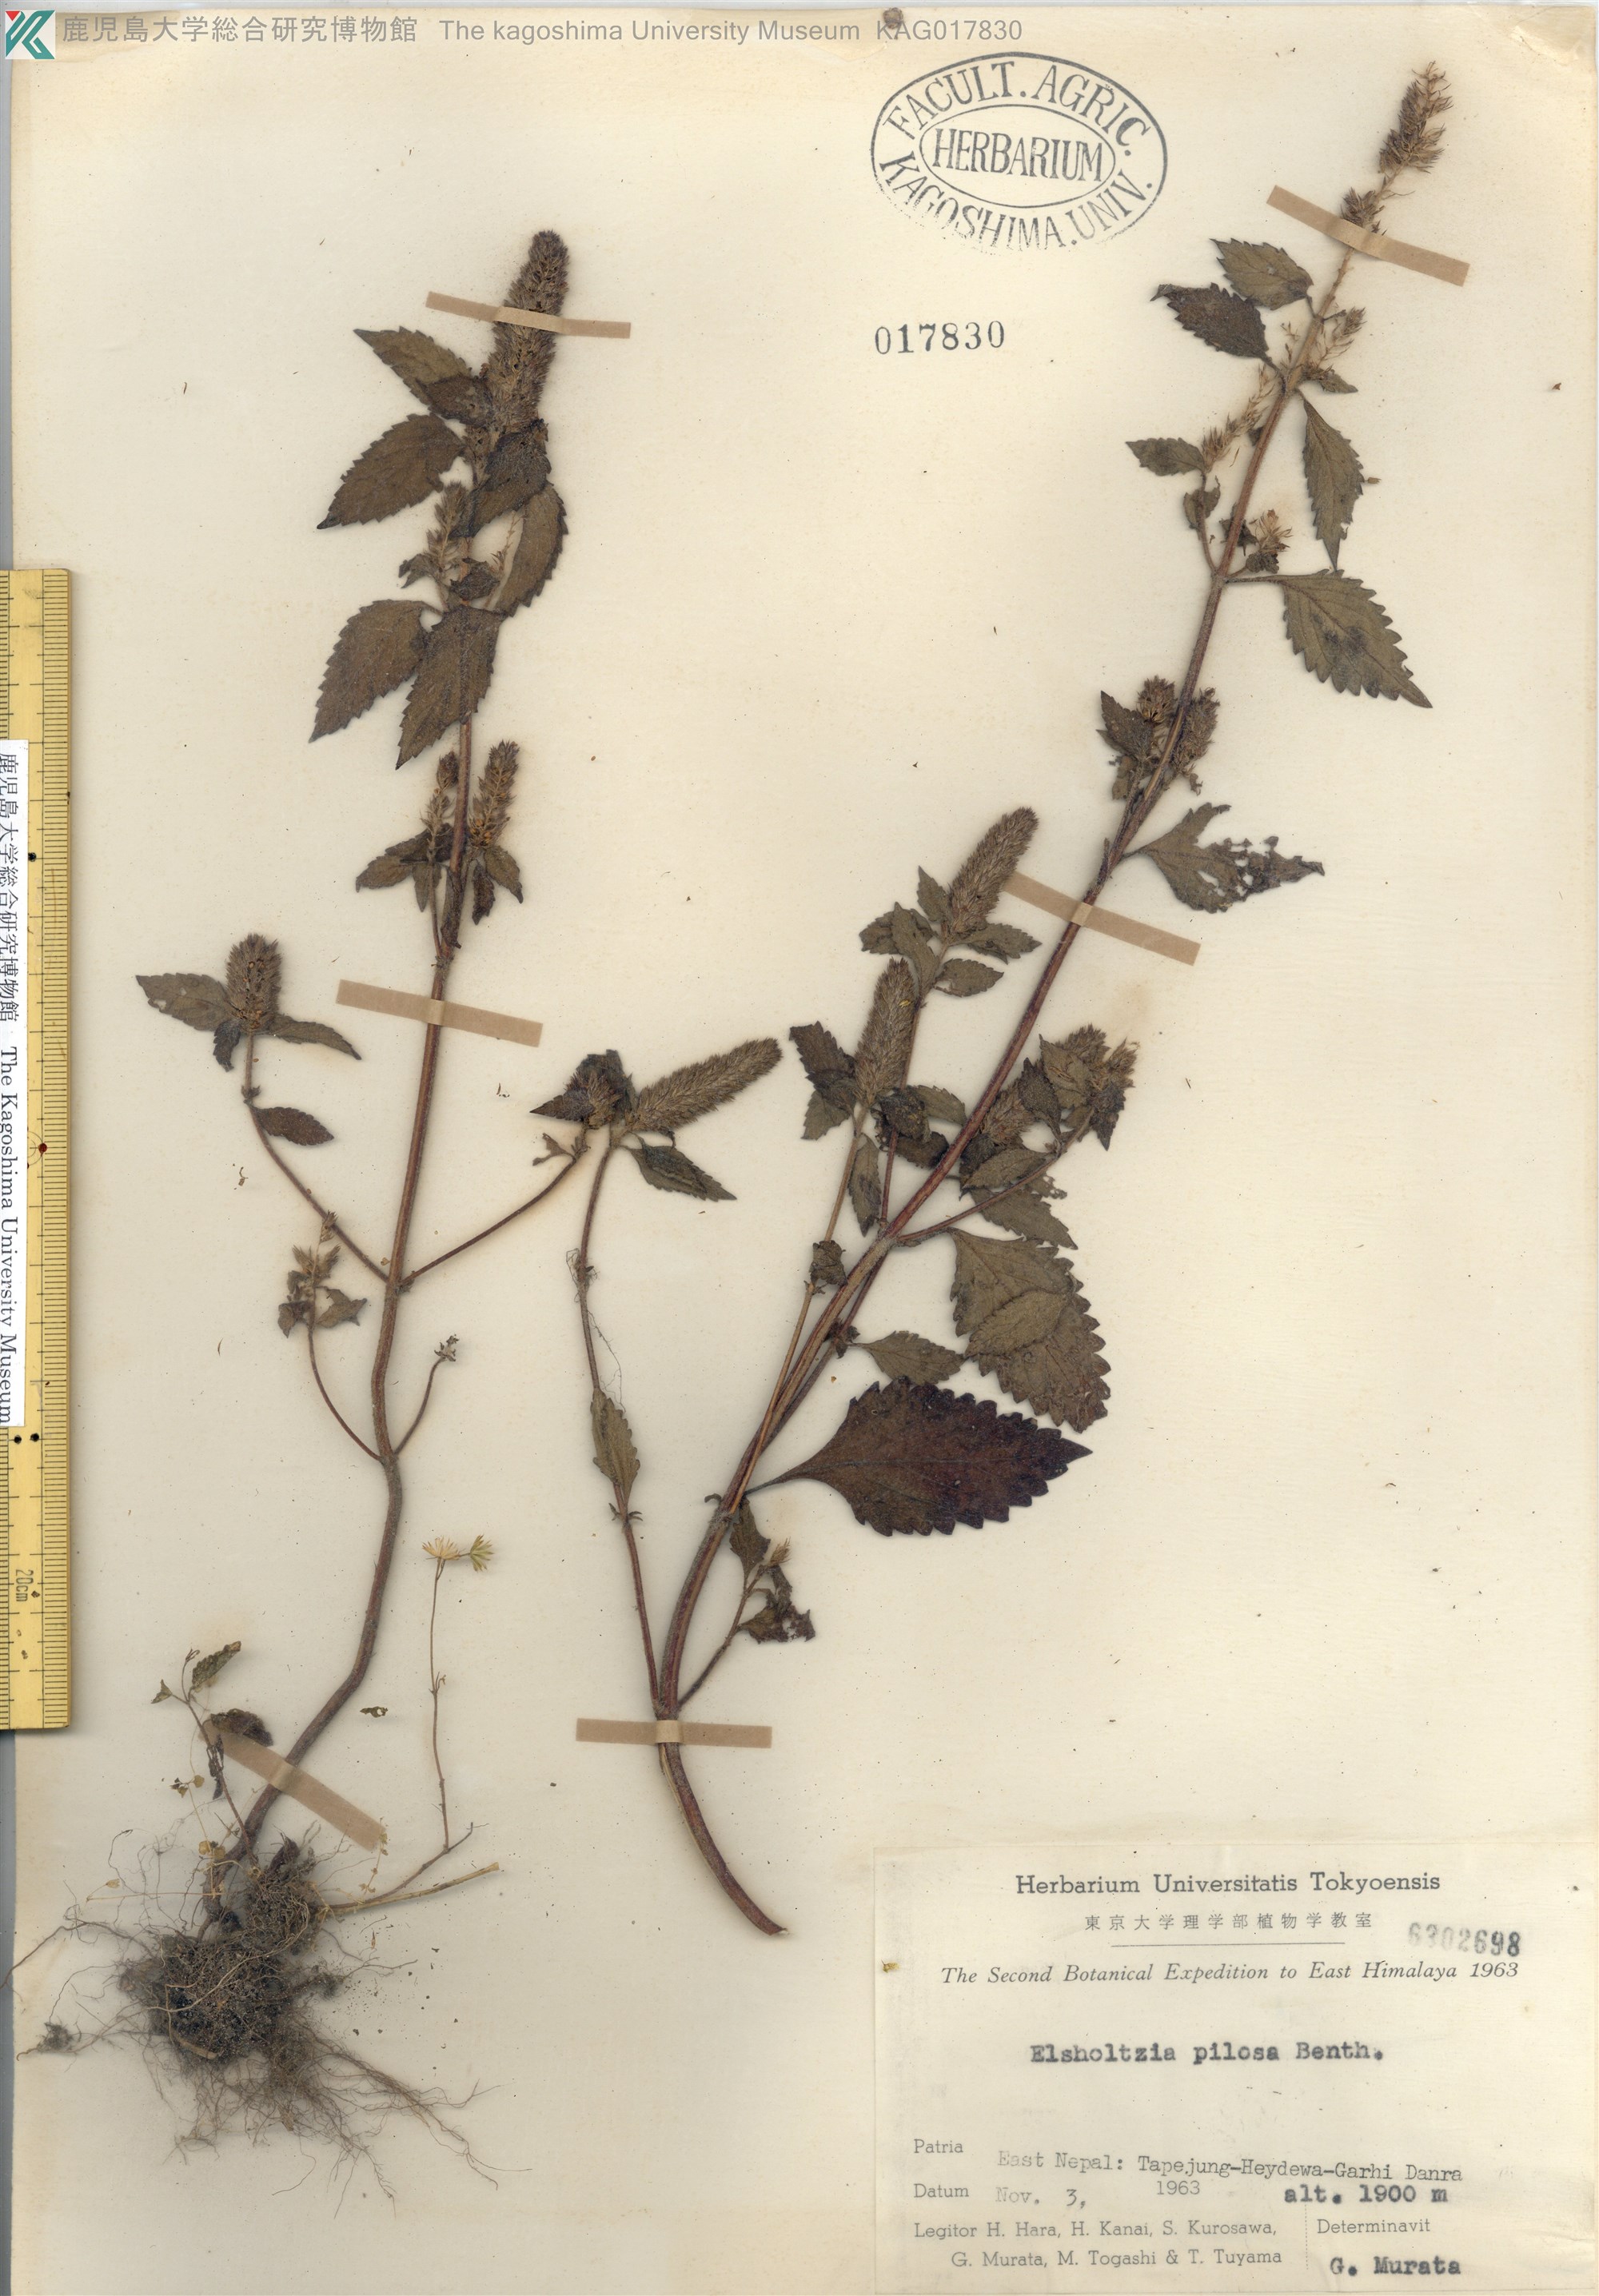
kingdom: Plantae
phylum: Tracheophyta
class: Magnoliopsida
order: Lamiales
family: Lamiaceae
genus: Elsholtzia
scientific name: Elsholtzia pilosa
